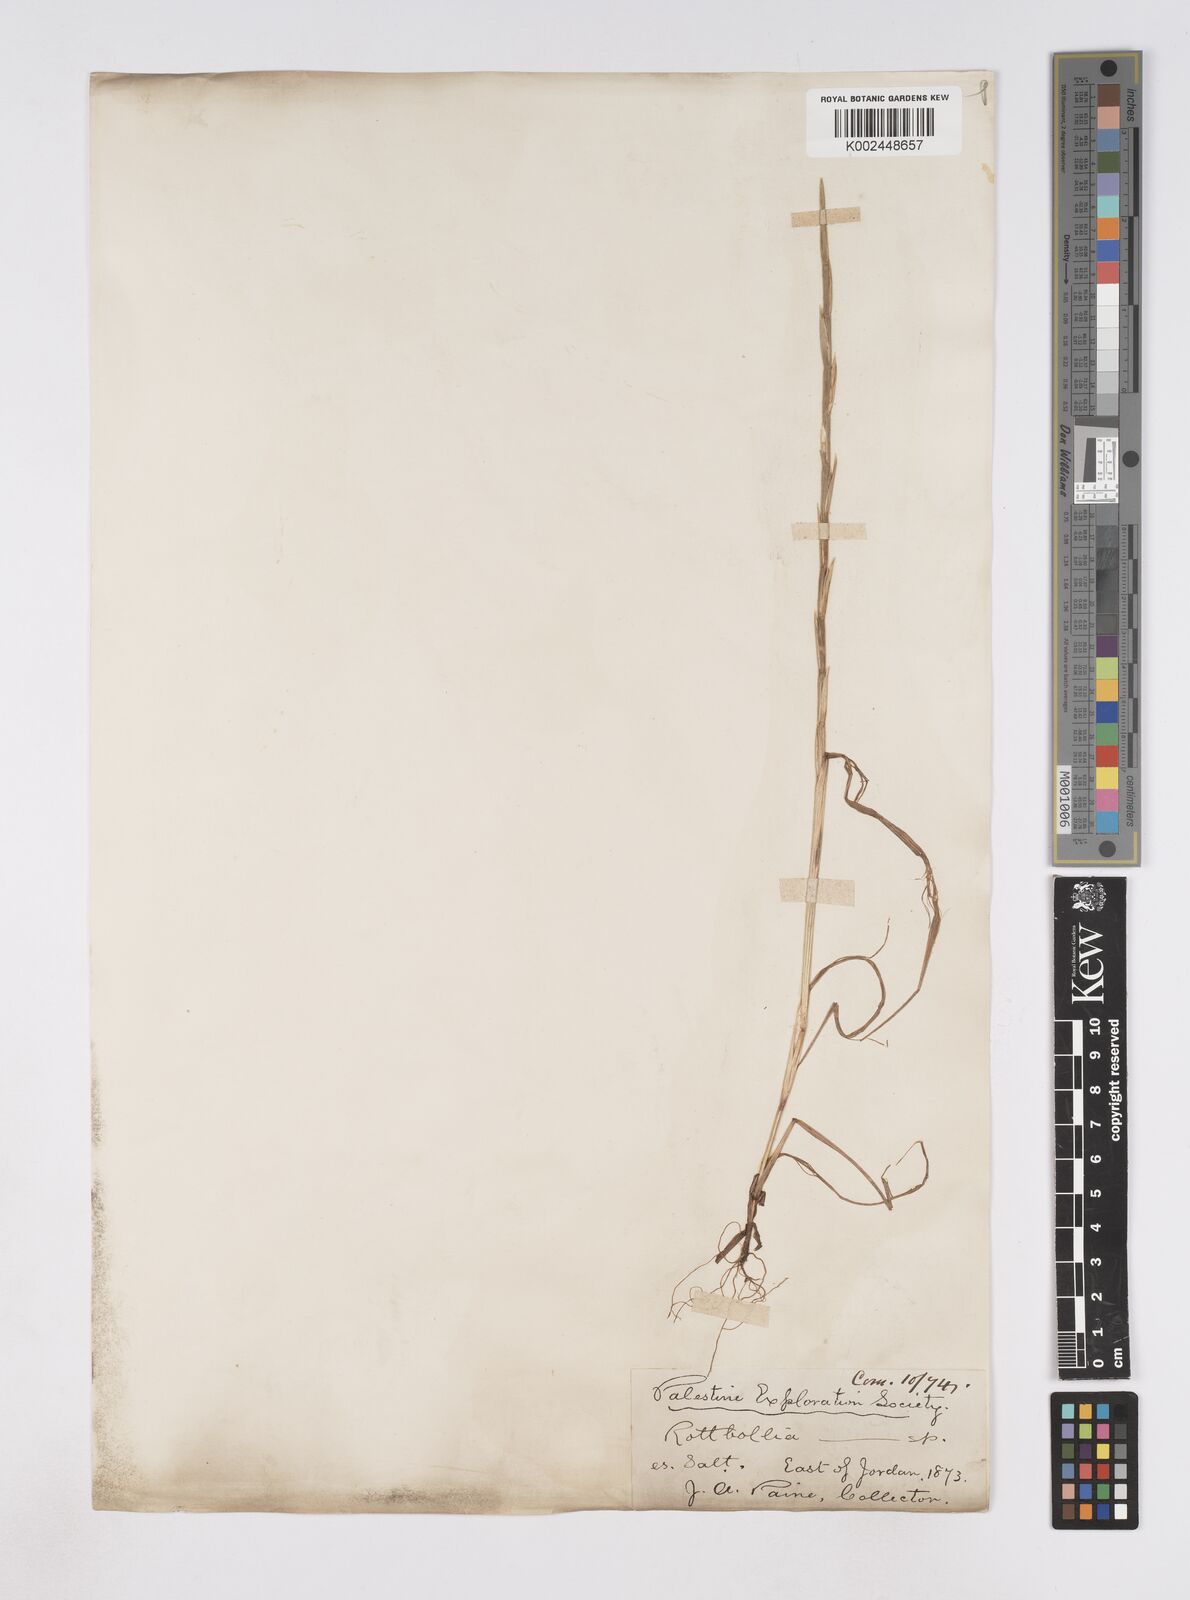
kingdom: Plantae
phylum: Tracheophyta
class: Liliopsida
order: Poales
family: Poaceae
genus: Phacelurus
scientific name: Phacelurus digitatus
